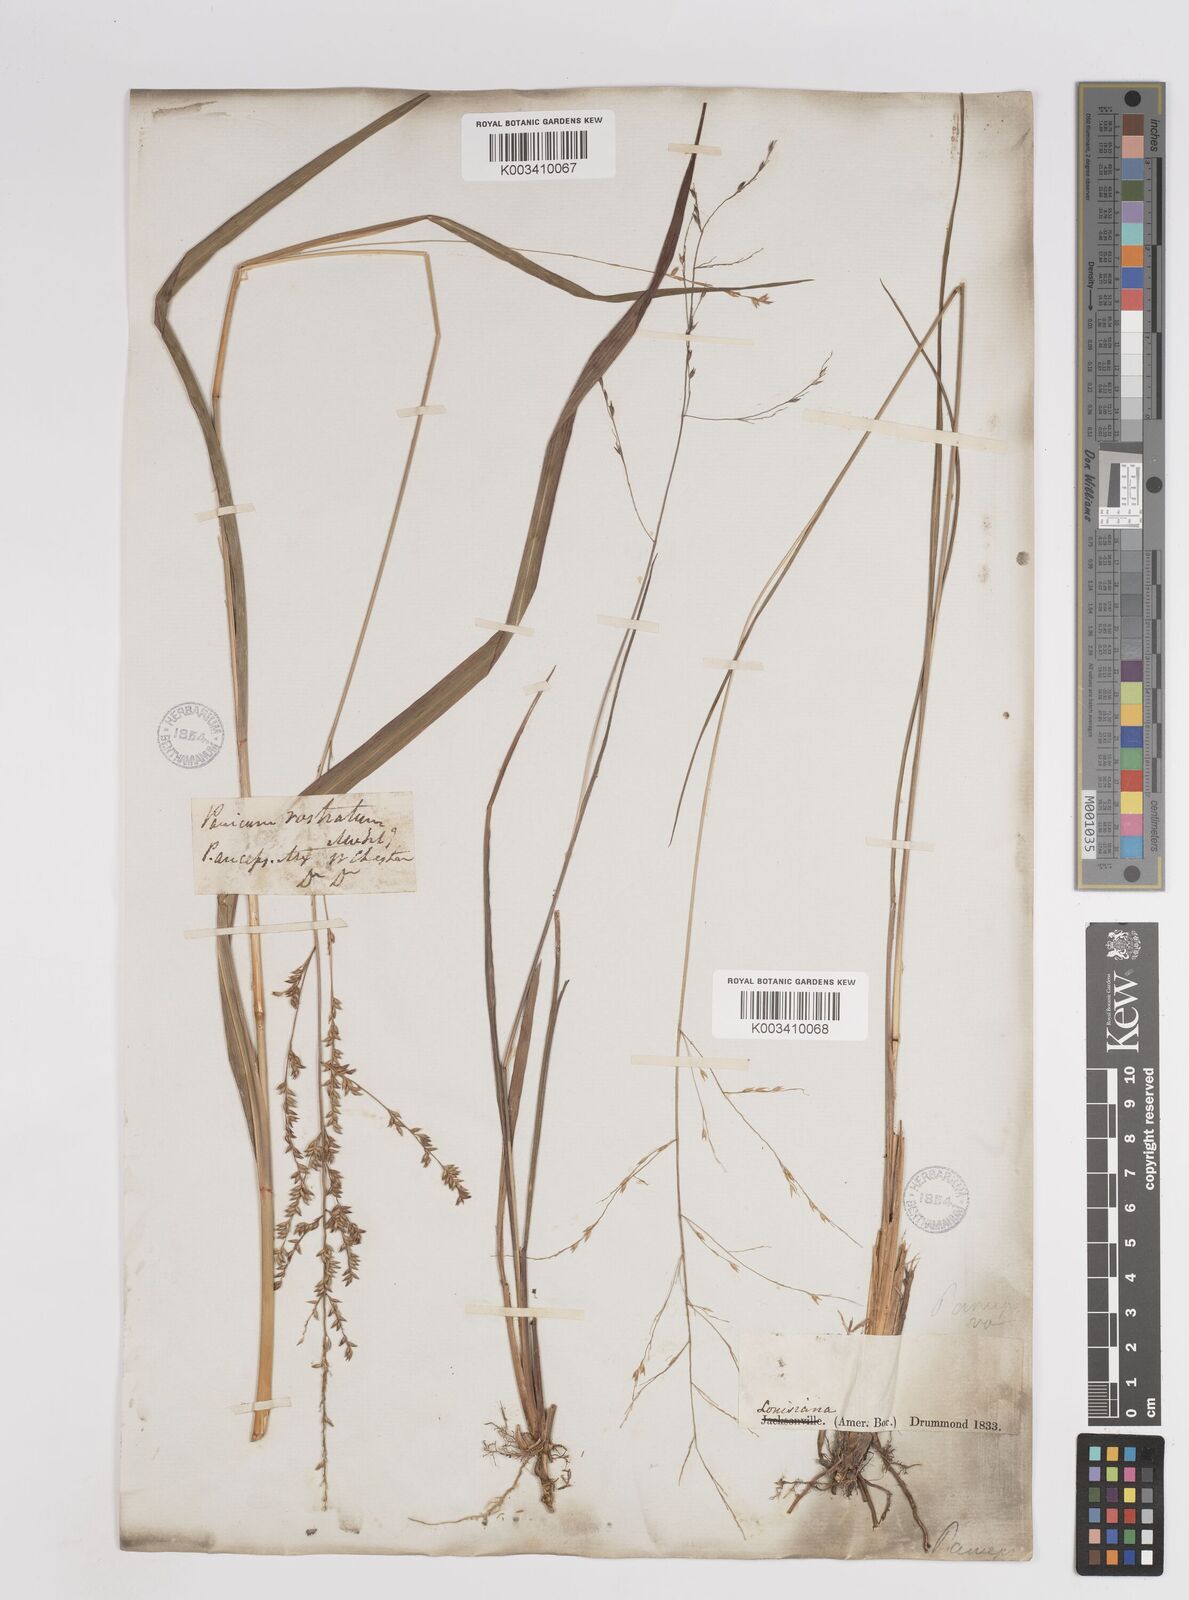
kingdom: Plantae
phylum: Tracheophyta
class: Liliopsida
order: Poales
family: Poaceae
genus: Coleataenia
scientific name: Coleataenia anceps
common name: Beaked panic grass
